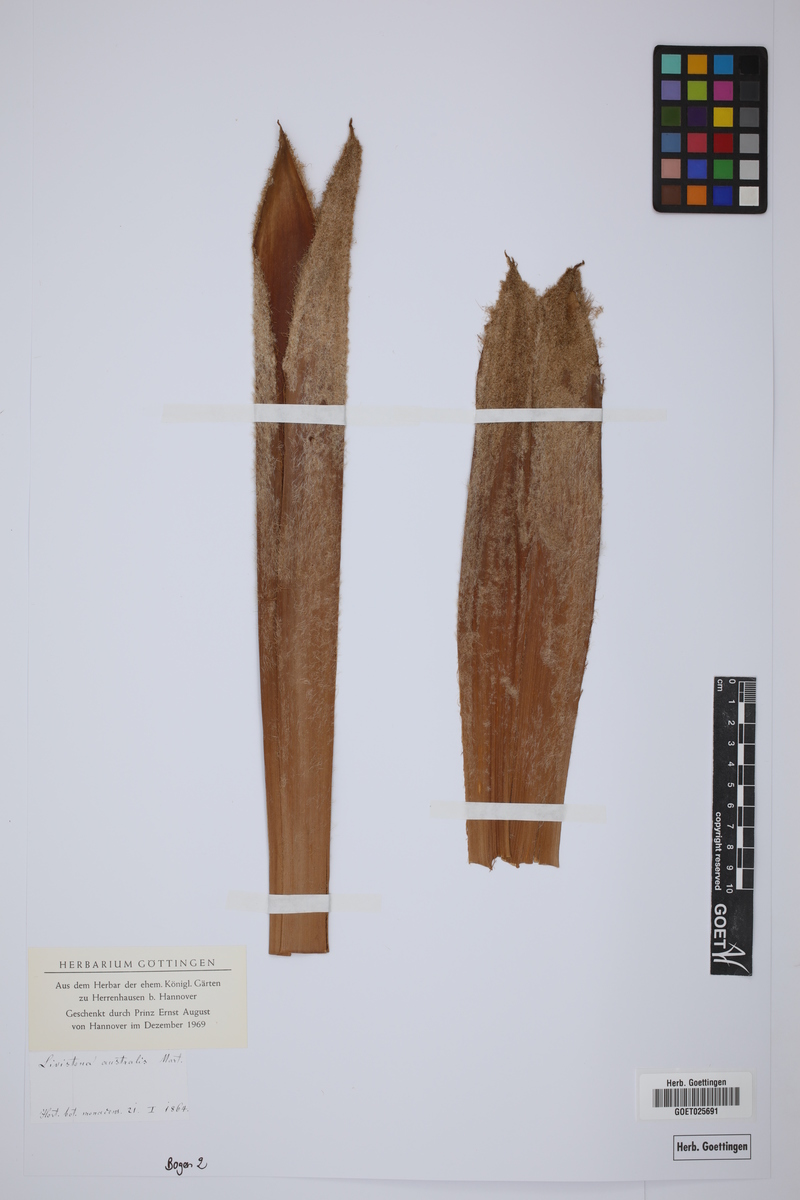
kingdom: Plantae
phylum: Tracheophyta
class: Liliopsida
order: Arecales
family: Arecaceae
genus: Livistona
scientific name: Livistona australis
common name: Cabbage fan palm
